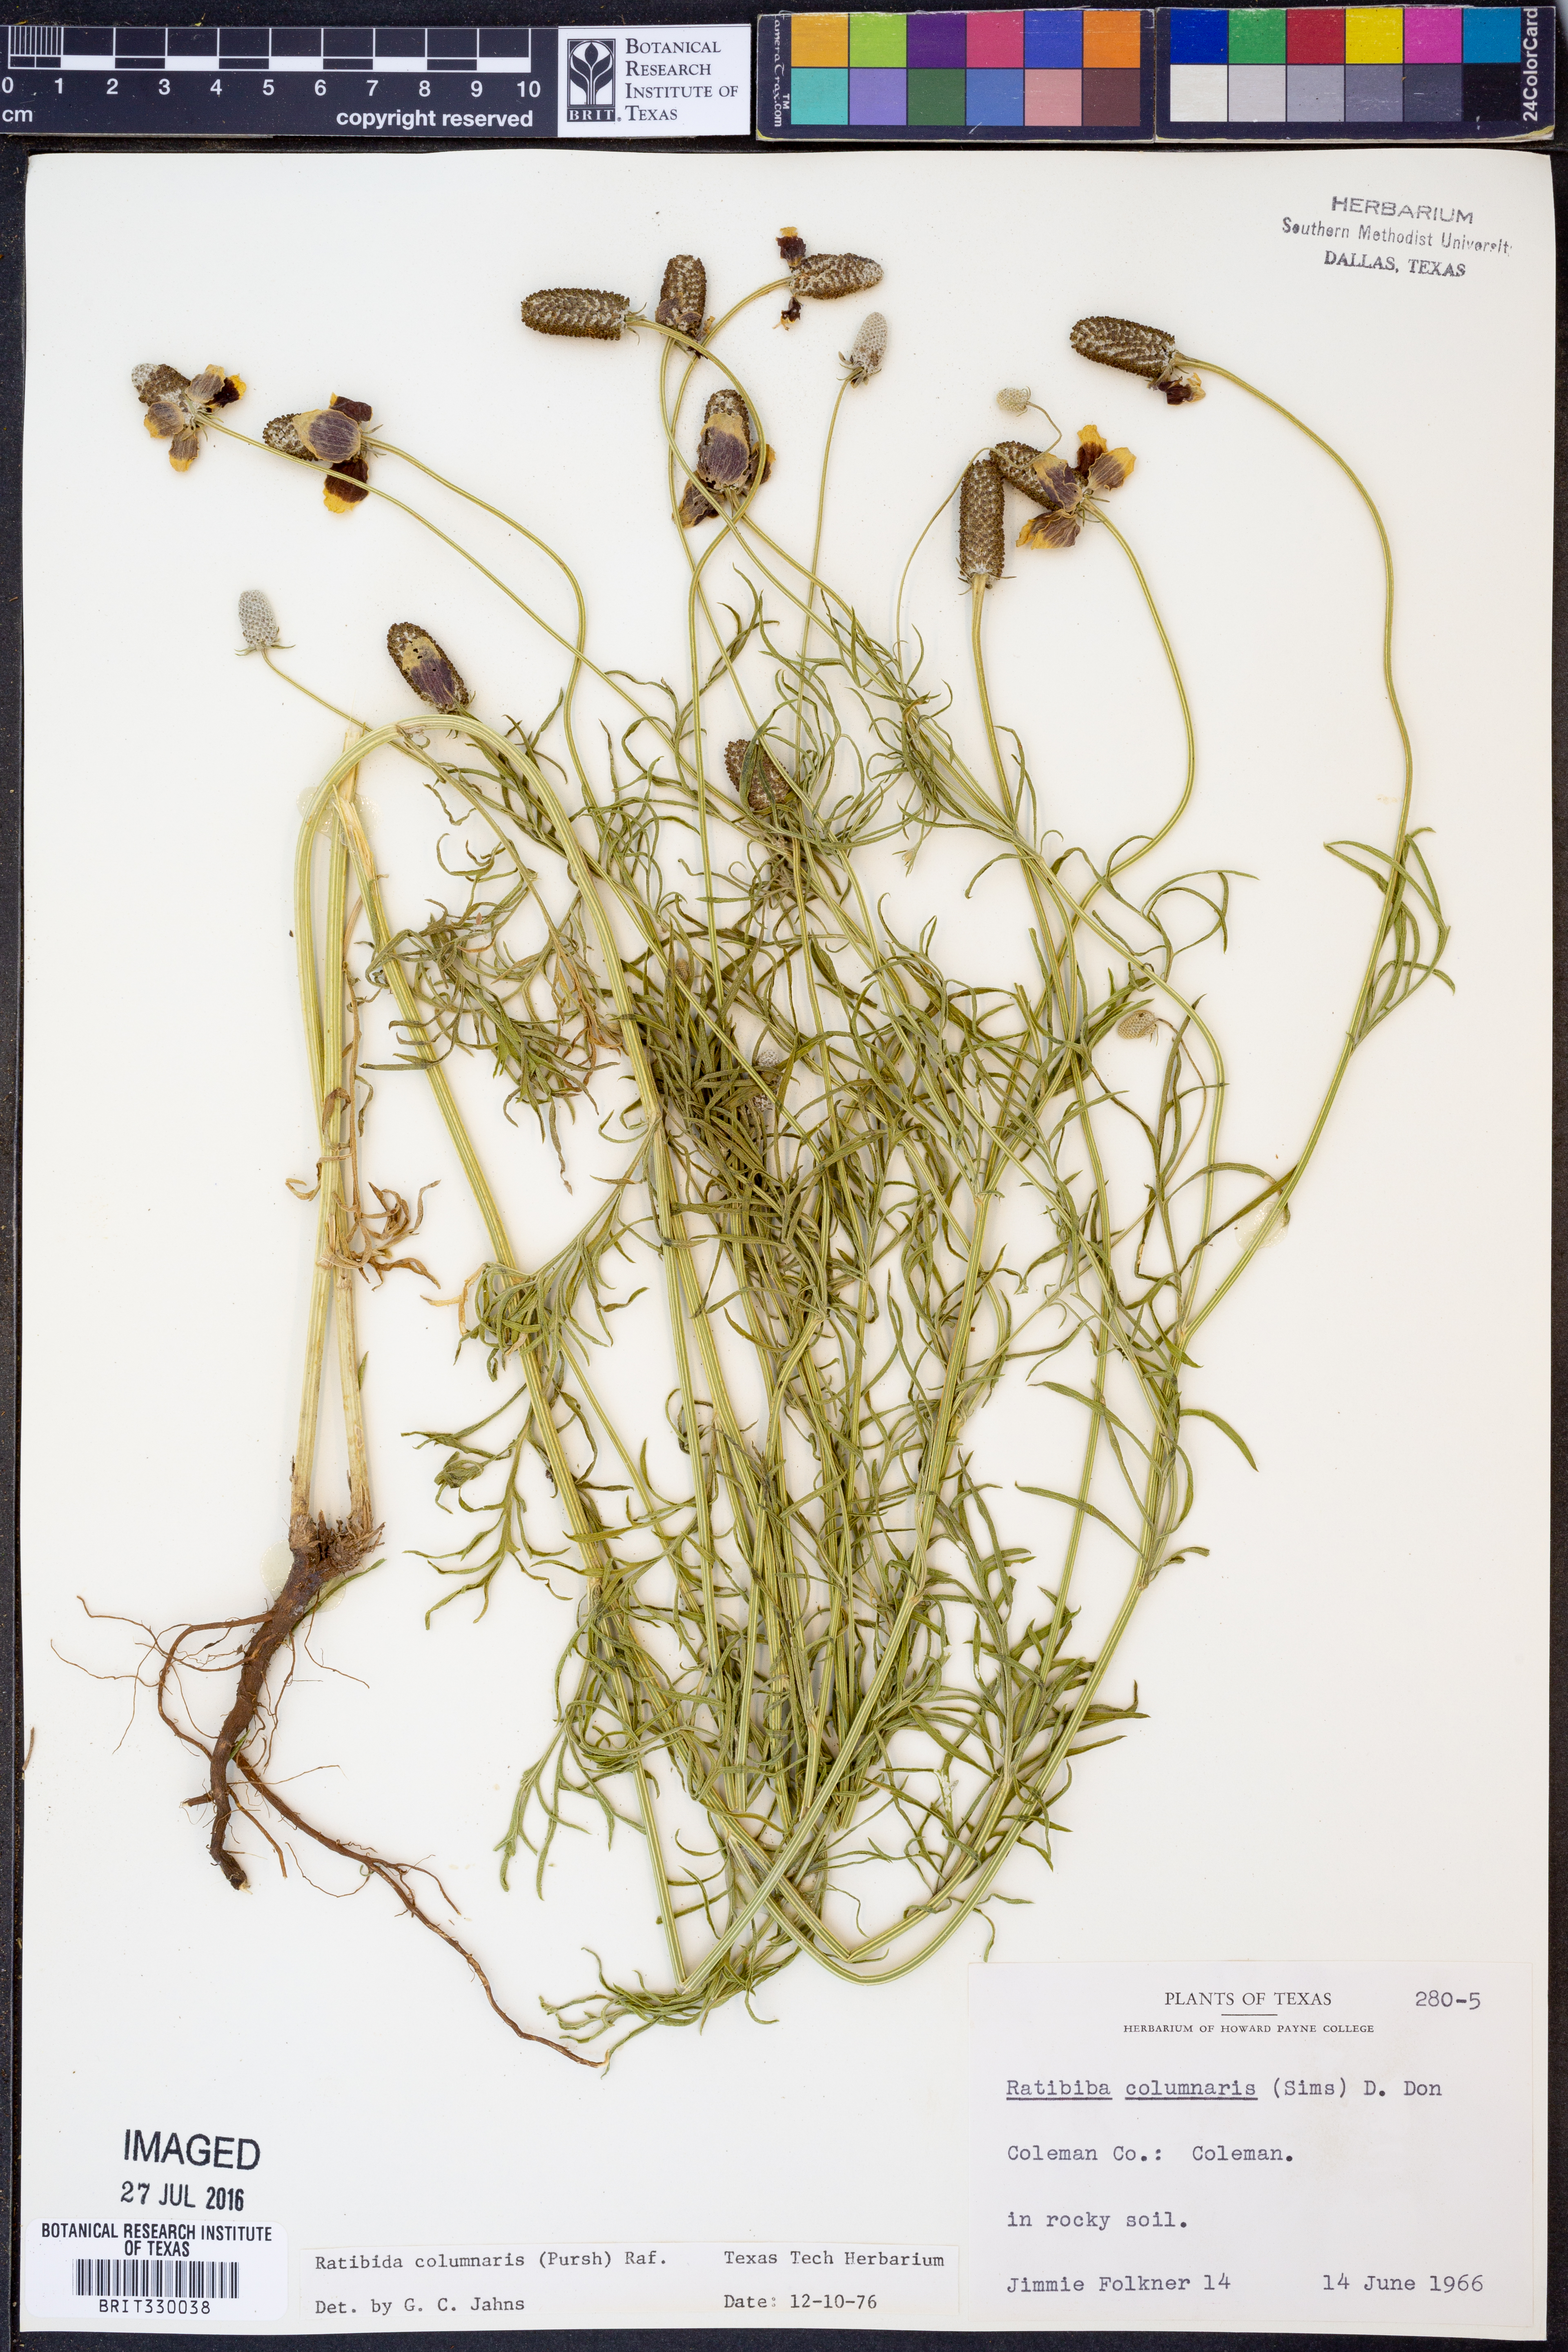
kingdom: Plantae
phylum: Tracheophyta
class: Magnoliopsida
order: Asterales
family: Asteraceae
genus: Ratibida
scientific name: Ratibida columnifera
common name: Prairie coneflower
